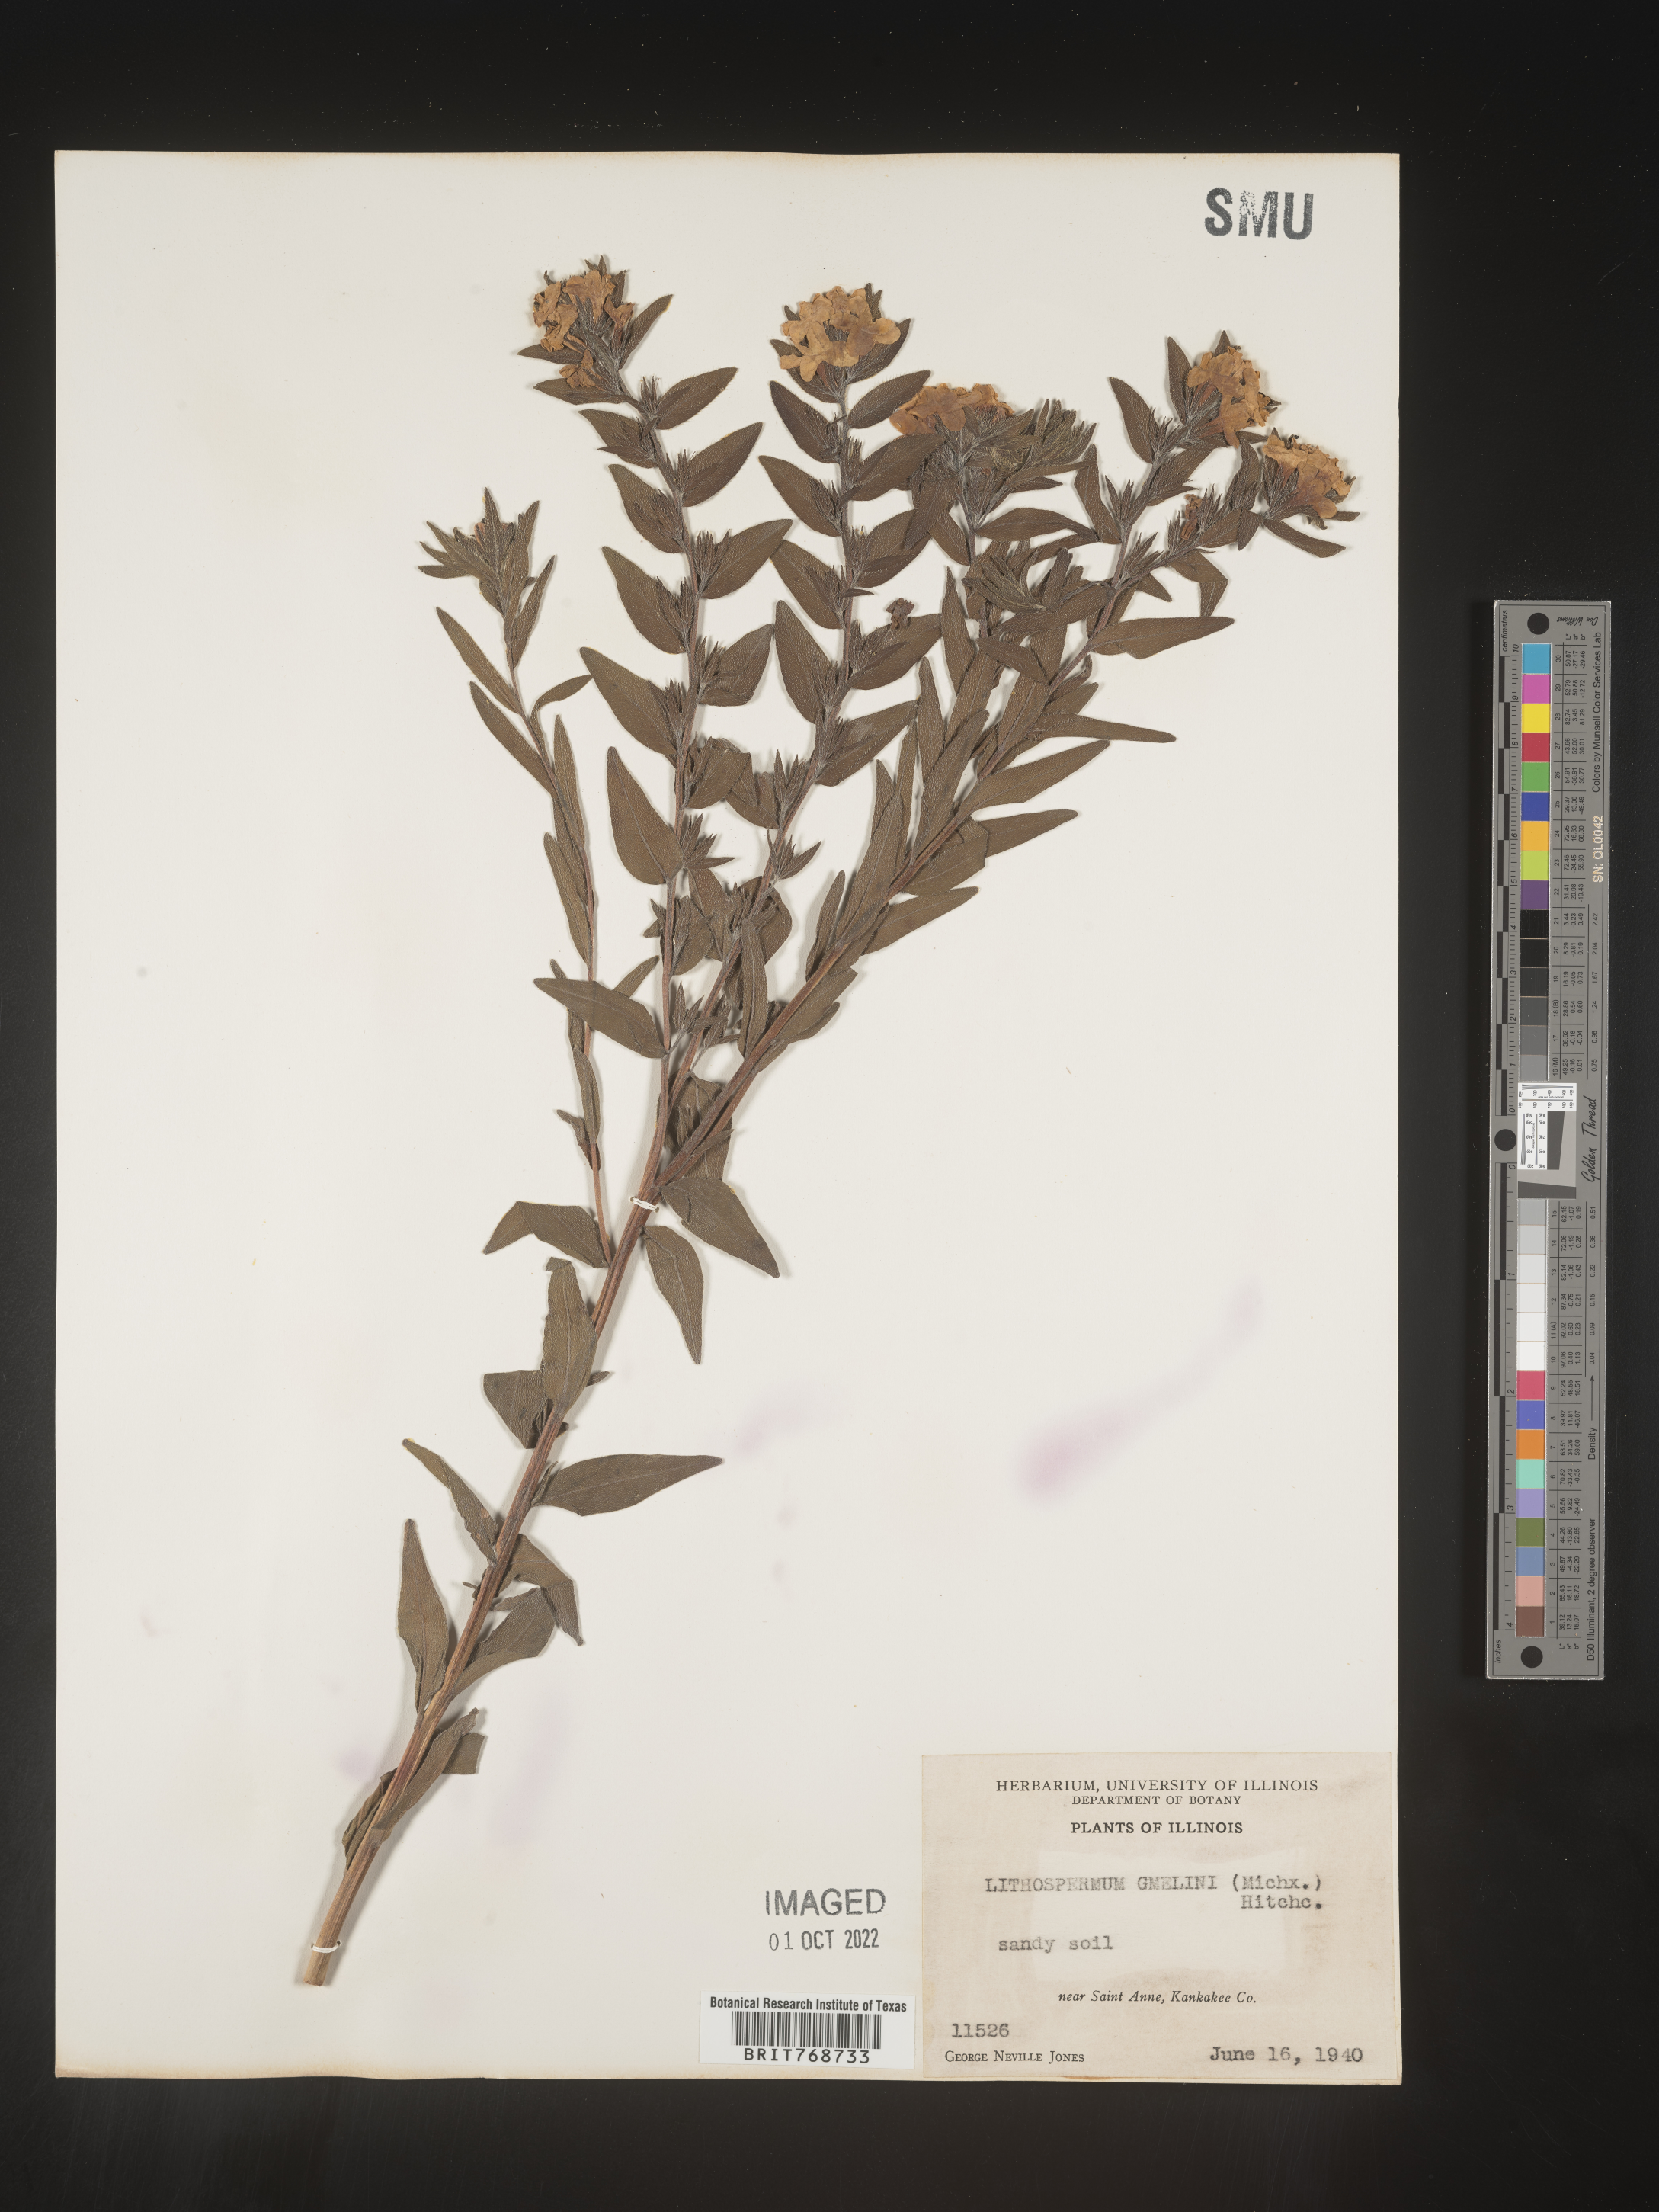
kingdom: Plantae
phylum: Tracheophyta
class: Magnoliopsida
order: Boraginales
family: Boraginaceae
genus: Lithospermum
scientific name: Lithospermum caroliniense
